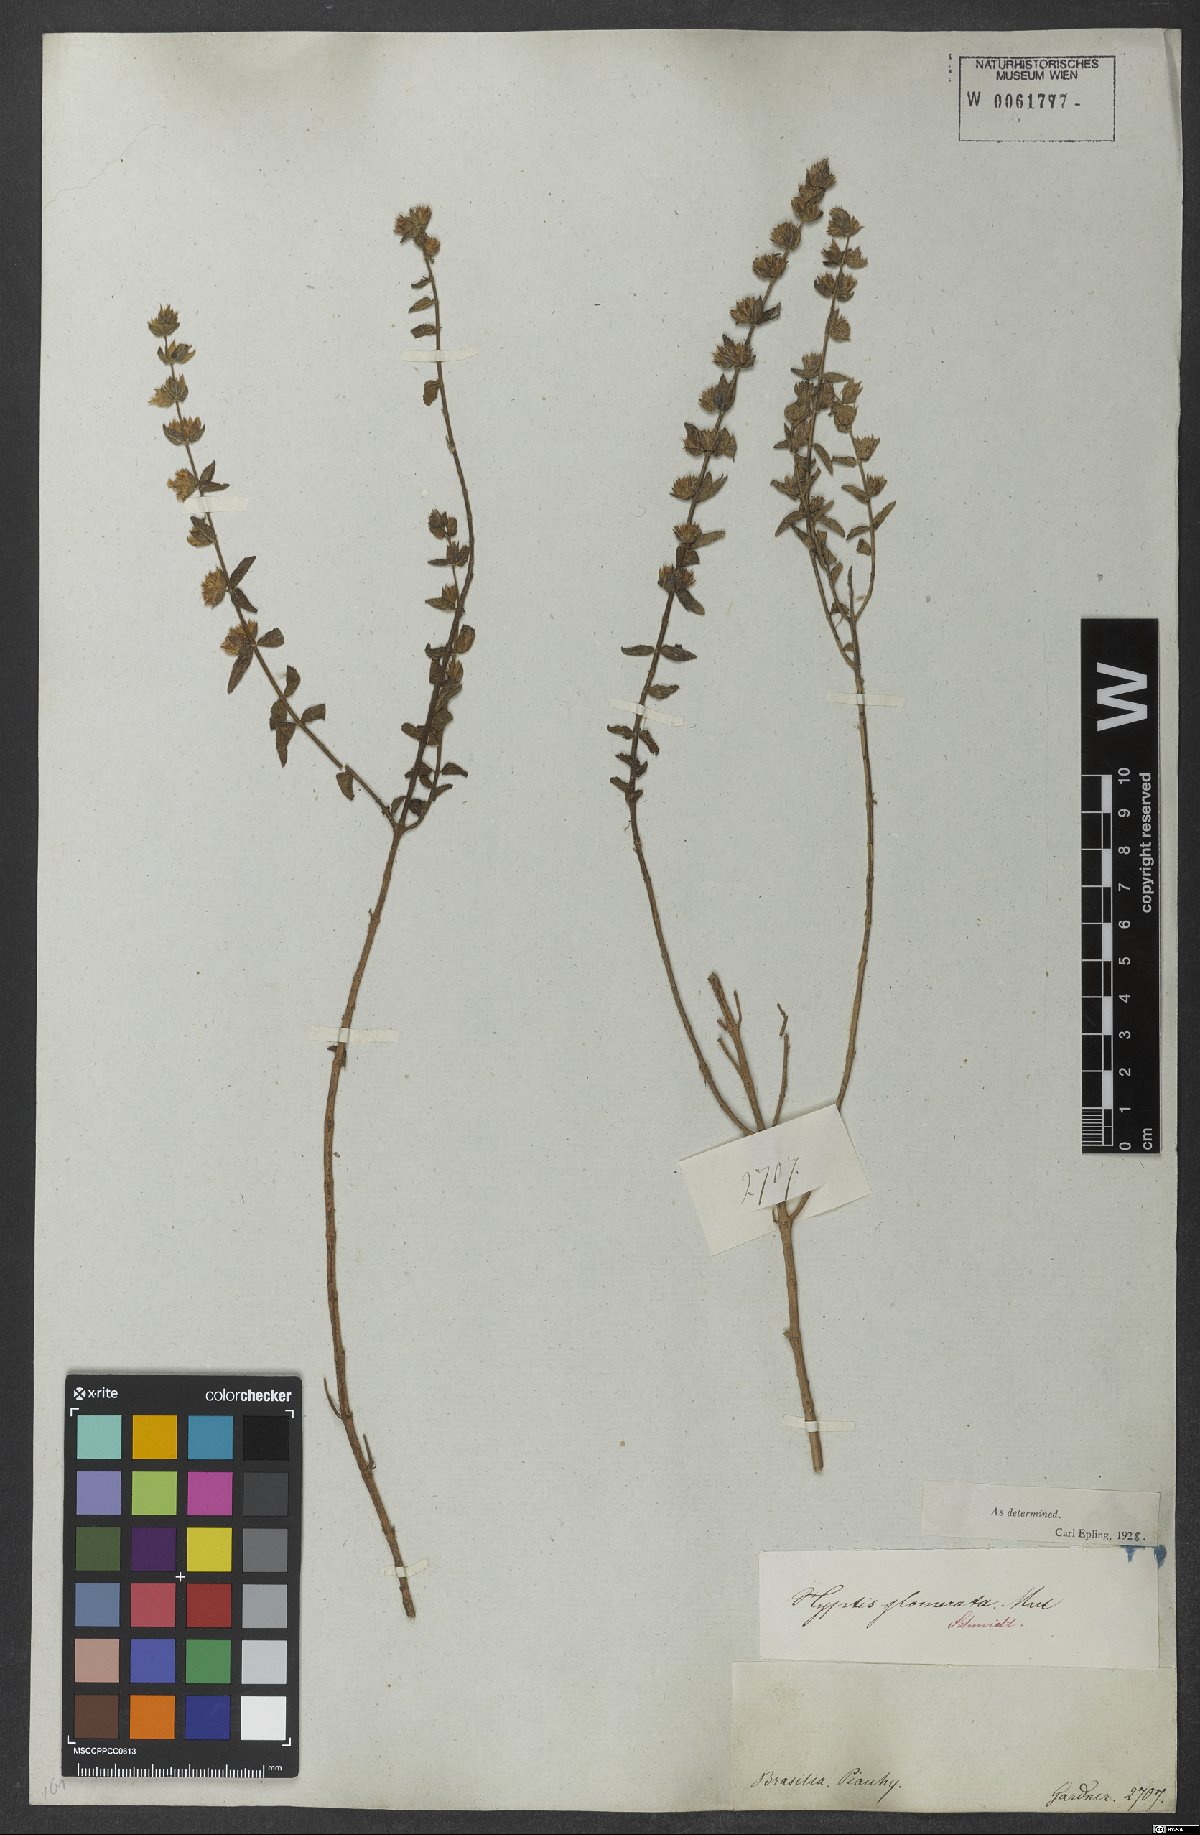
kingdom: Plantae
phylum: Tracheophyta
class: Magnoliopsida
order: Lamiales
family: Lamiaceae
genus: Oocephalus
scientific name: Oocephalus oppositiflorus
